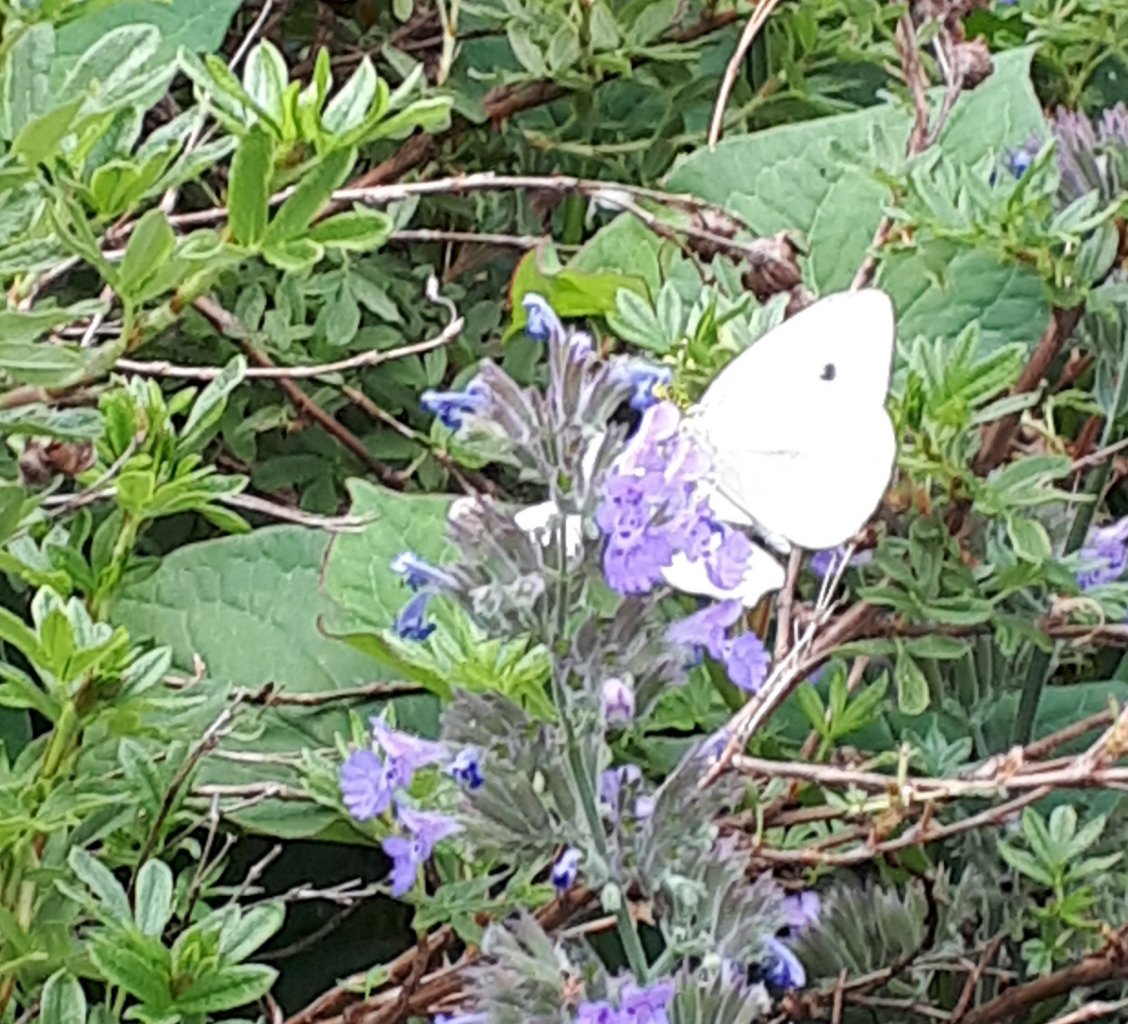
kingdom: Animalia
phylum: Arthropoda
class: Insecta
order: Lepidoptera
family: Pieridae
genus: Pieris
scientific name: Pieris rapae
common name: Cabbage White
